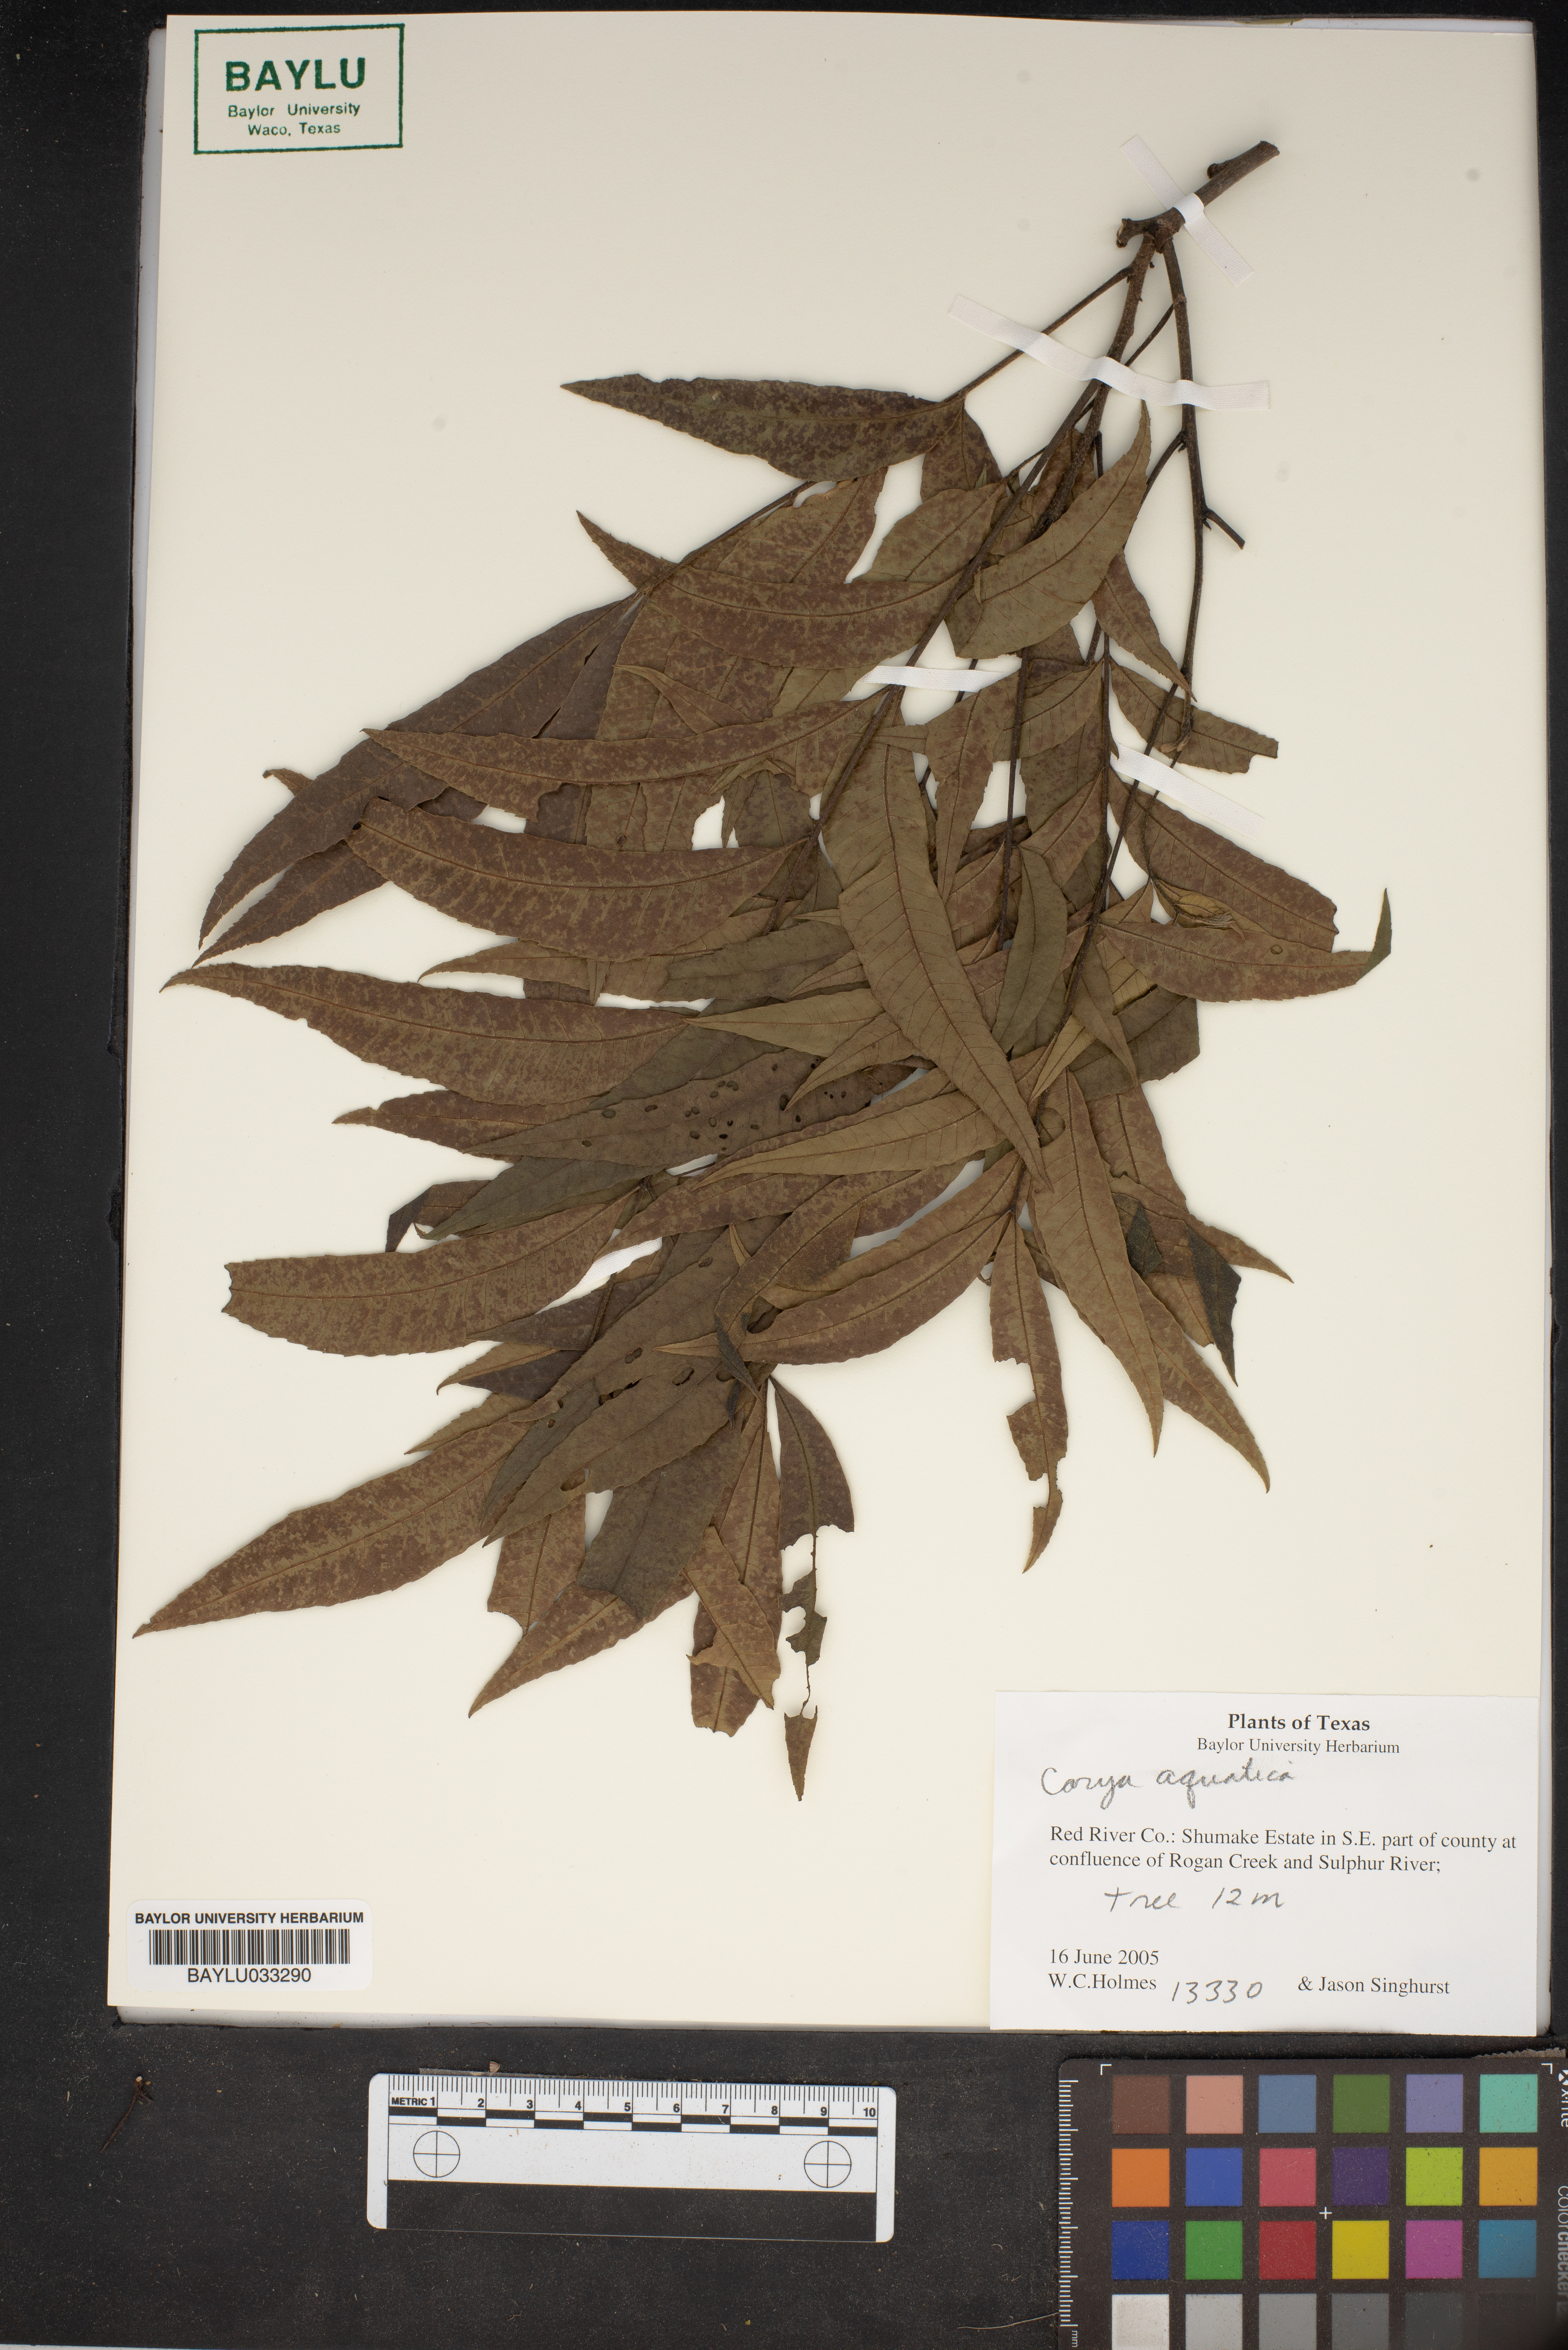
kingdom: Plantae
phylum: Tracheophyta
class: Magnoliopsida
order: Fagales
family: Juglandaceae
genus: Carya
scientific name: Carya aquatica
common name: Water hickory
